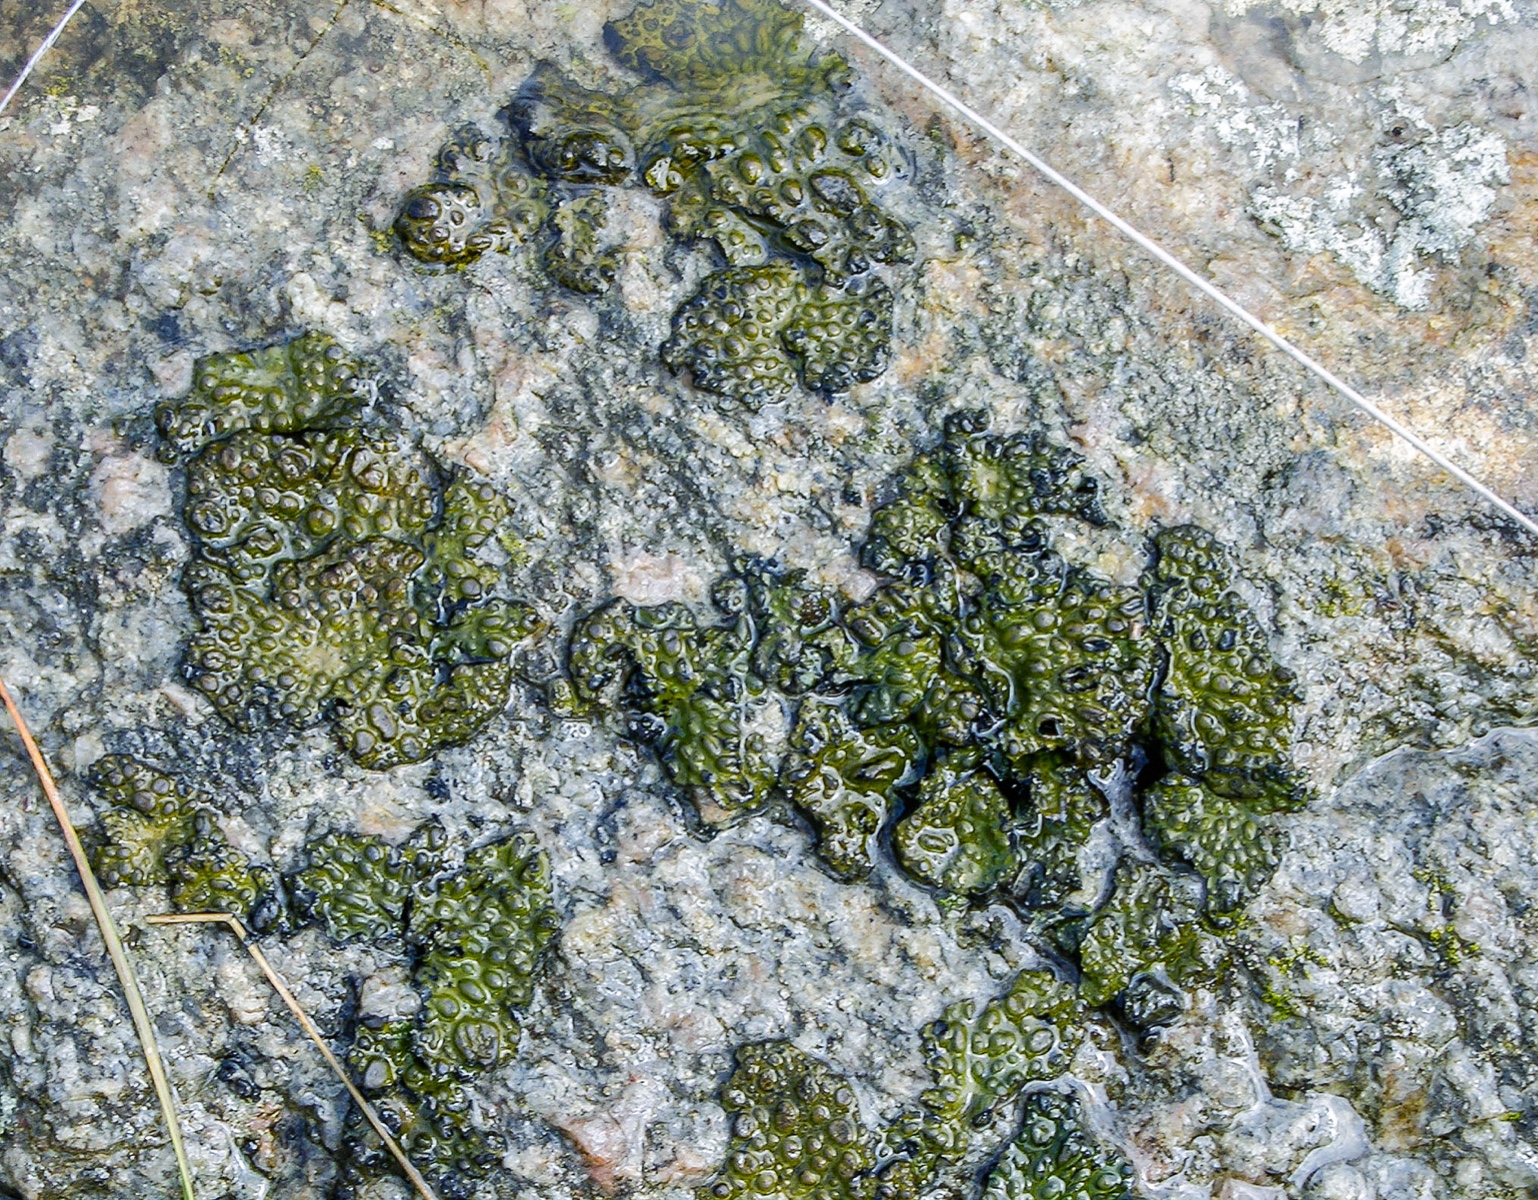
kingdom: Fungi
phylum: Ascomycota
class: Lecanoromycetes
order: Umbilicariales
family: Umbilicariaceae
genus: Lasallia
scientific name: Lasallia pustulata
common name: buklet navlelav
